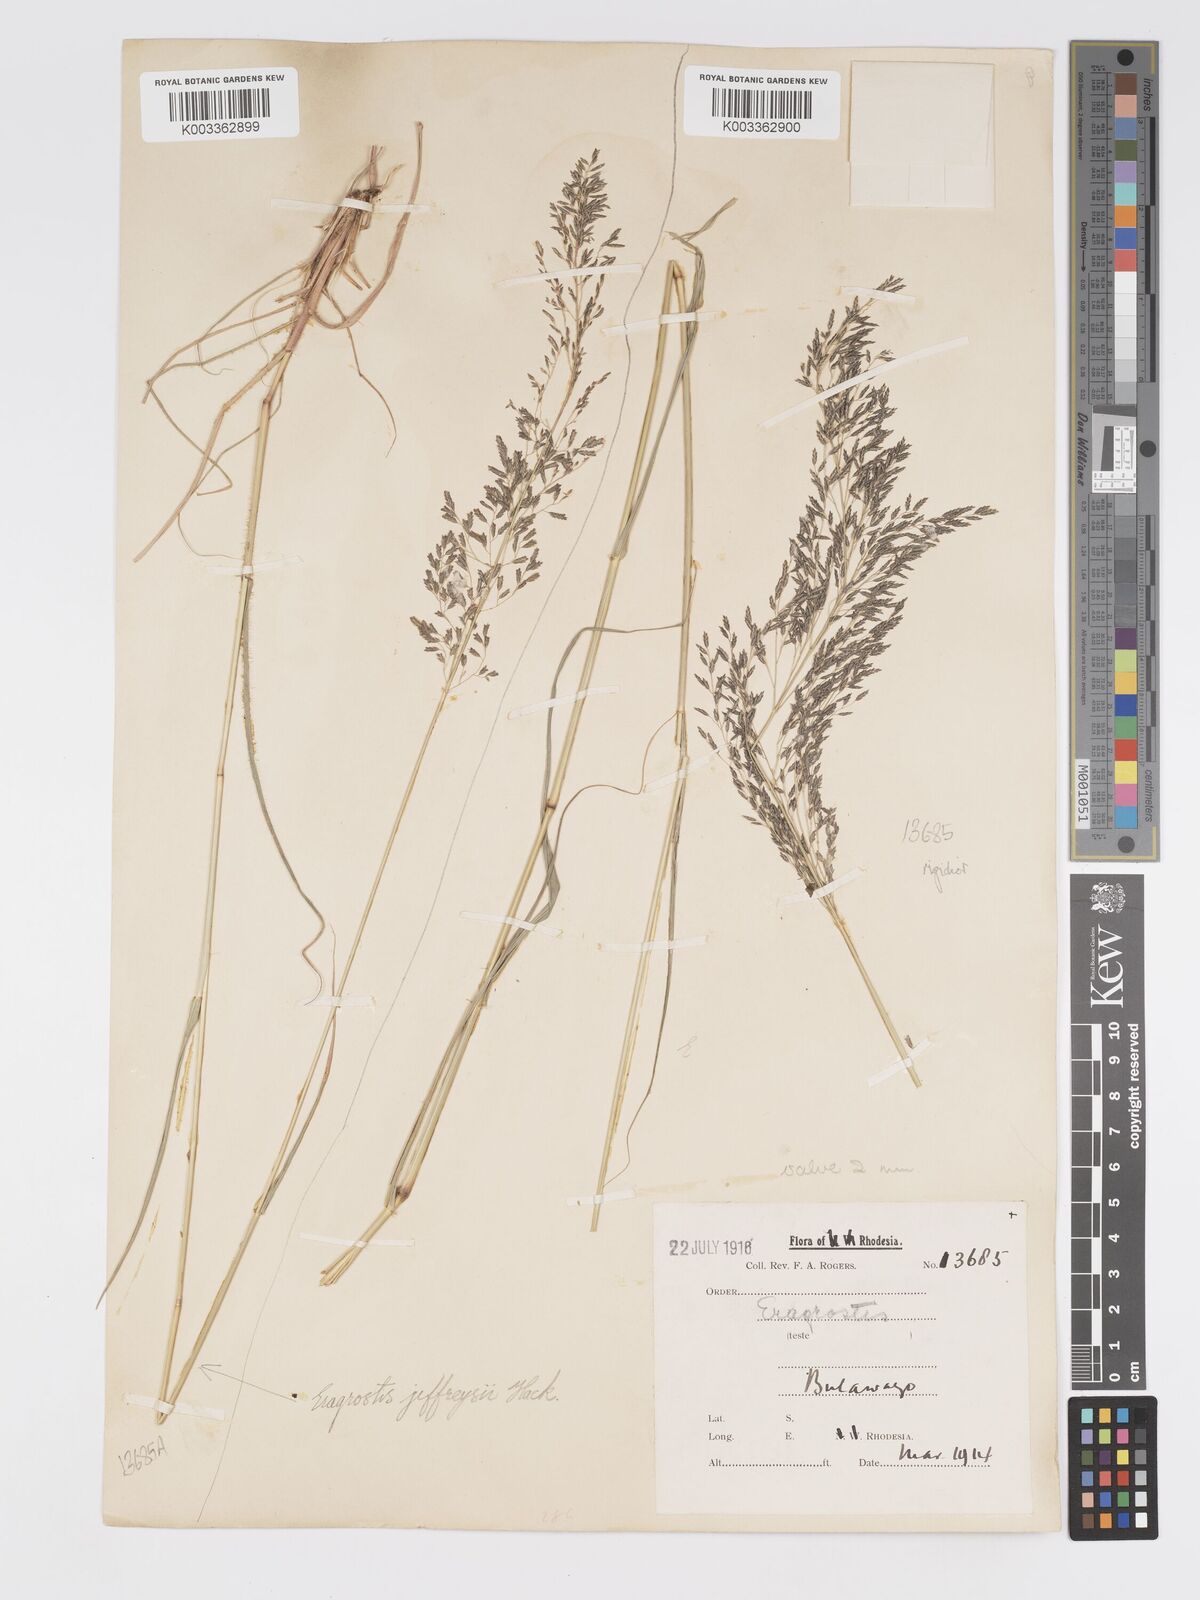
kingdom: Plantae
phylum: Tracheophyta
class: Liliopsida
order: Poales
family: Poaceae
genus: Eragrostis
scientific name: Eragrostis cylindriflora
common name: Cylinderflower lovegrass
